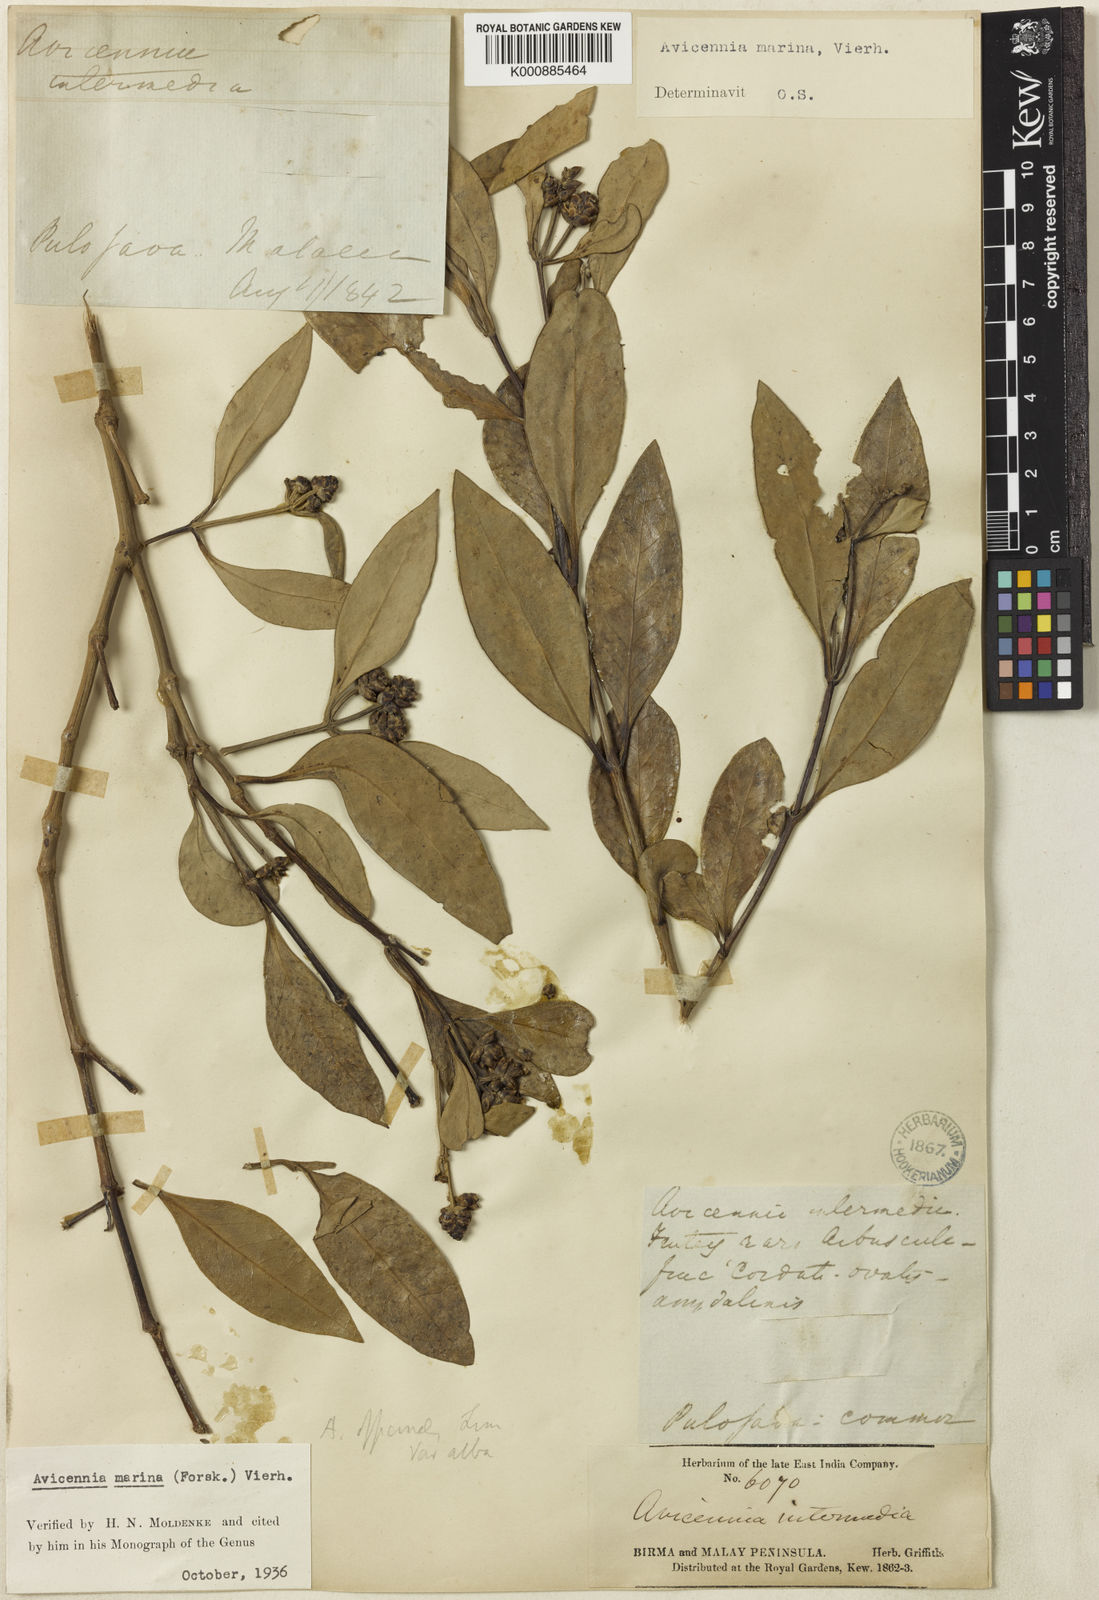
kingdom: Plantae
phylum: Tracheophyta
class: Magnoliopsida
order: Lamiales
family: Acanthaceae
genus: Avicennia
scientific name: Avicennia marina
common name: Gray mangrove
